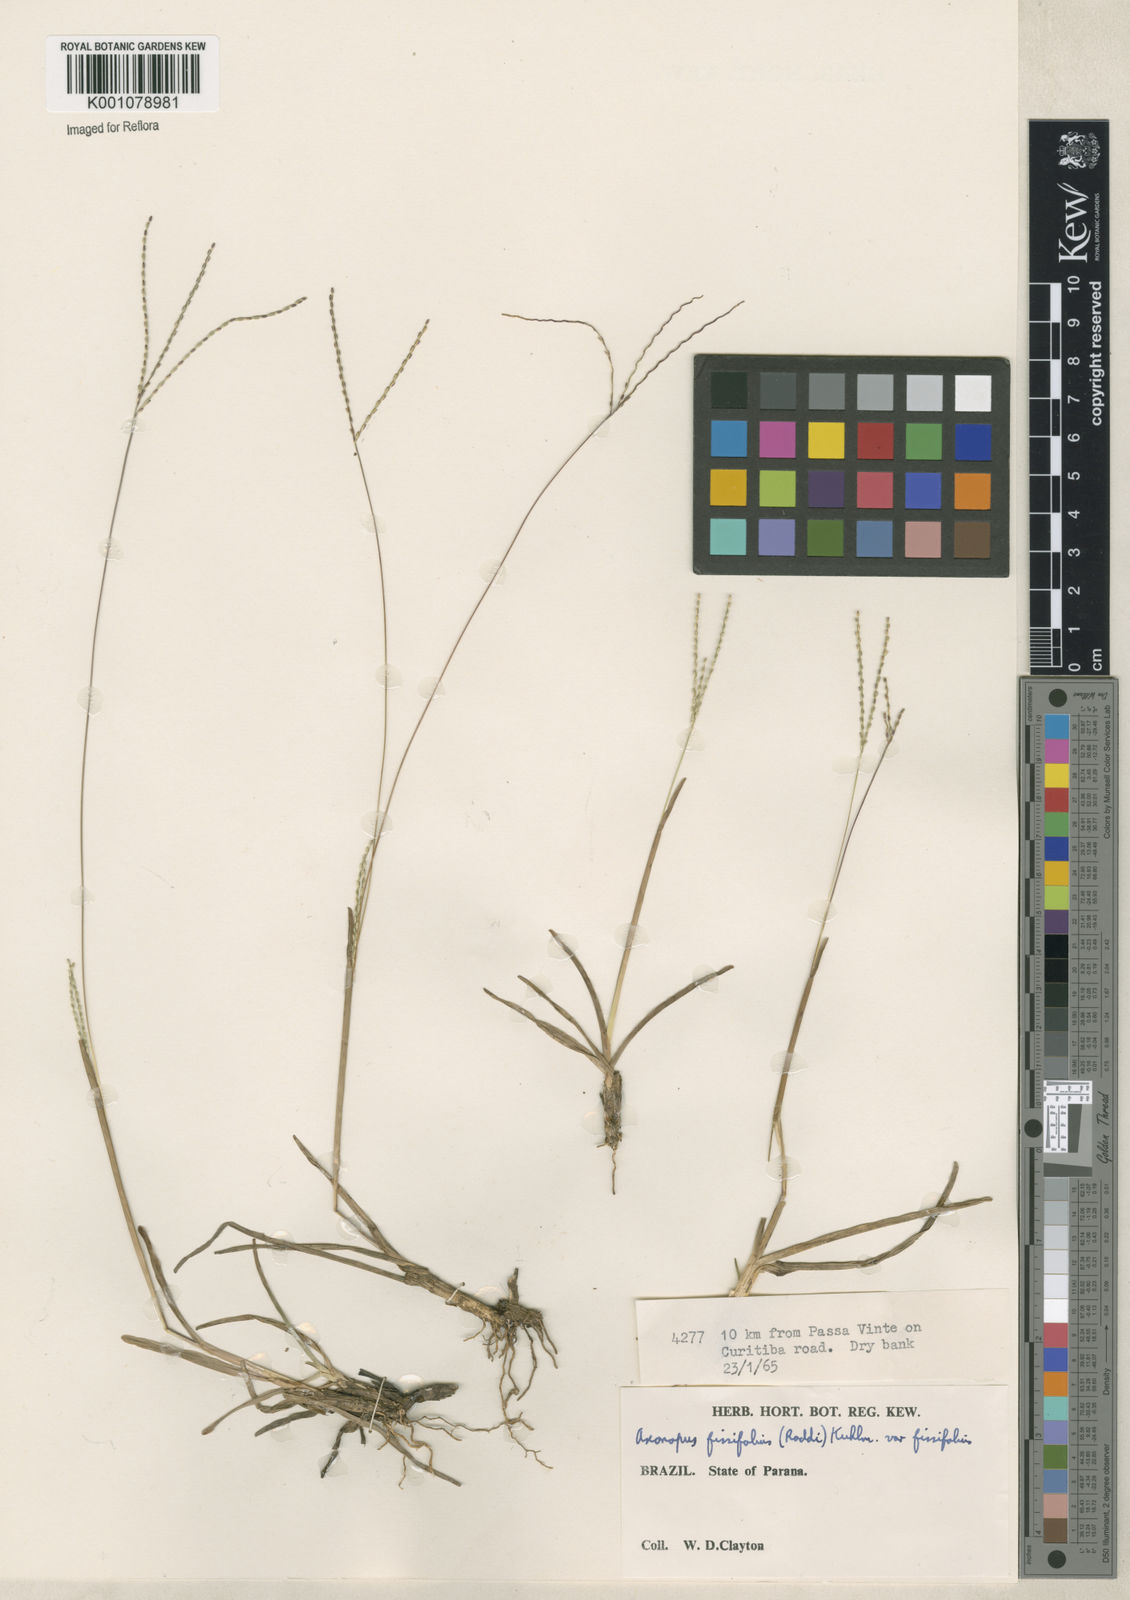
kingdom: Plantae
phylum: Tracheophyta
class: Liliopsida
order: Poales
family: Poaceae
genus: Axonopus
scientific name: Axonopus fissifolius
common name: Common carpetgrass
